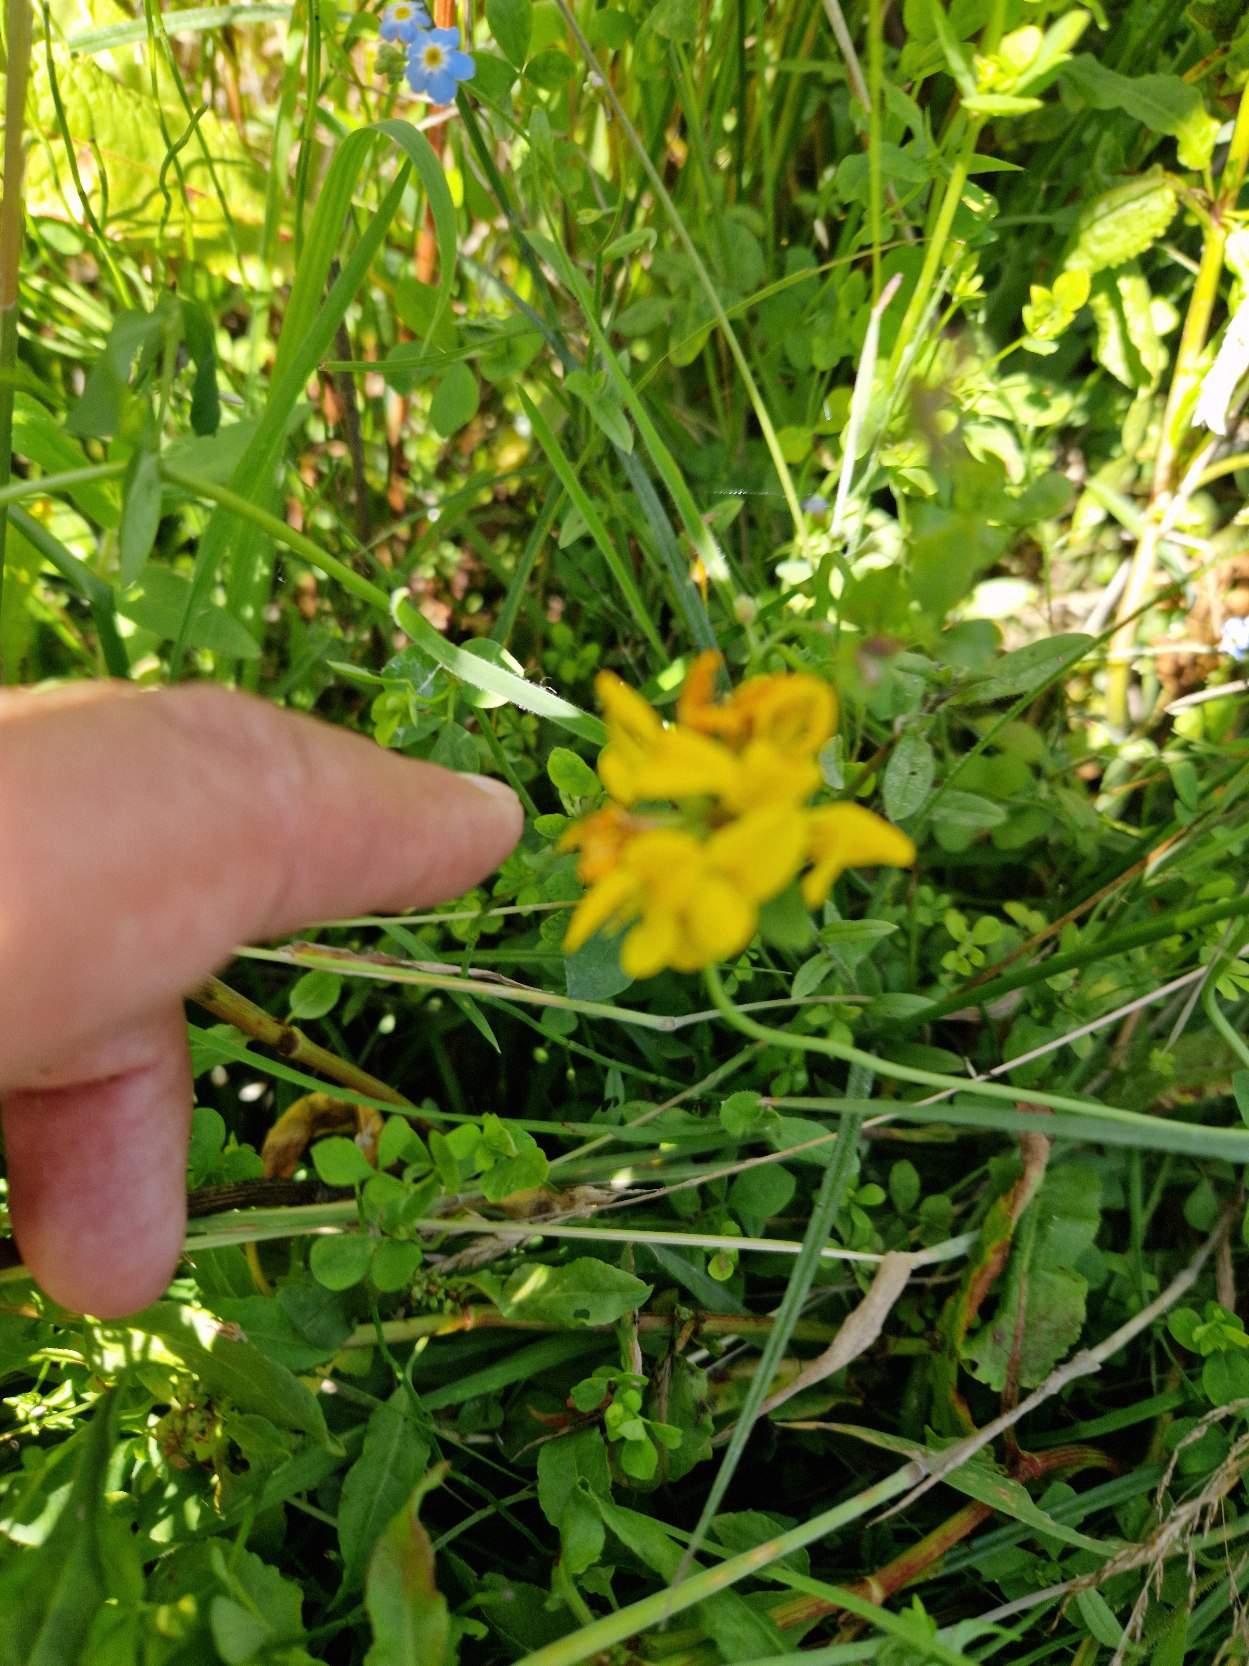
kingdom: Plantae
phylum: Tracheophyta
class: Magnoliopsida
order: Fabales
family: Fabaceae
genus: Lotus
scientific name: Lotus
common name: Kællingetandslægten
